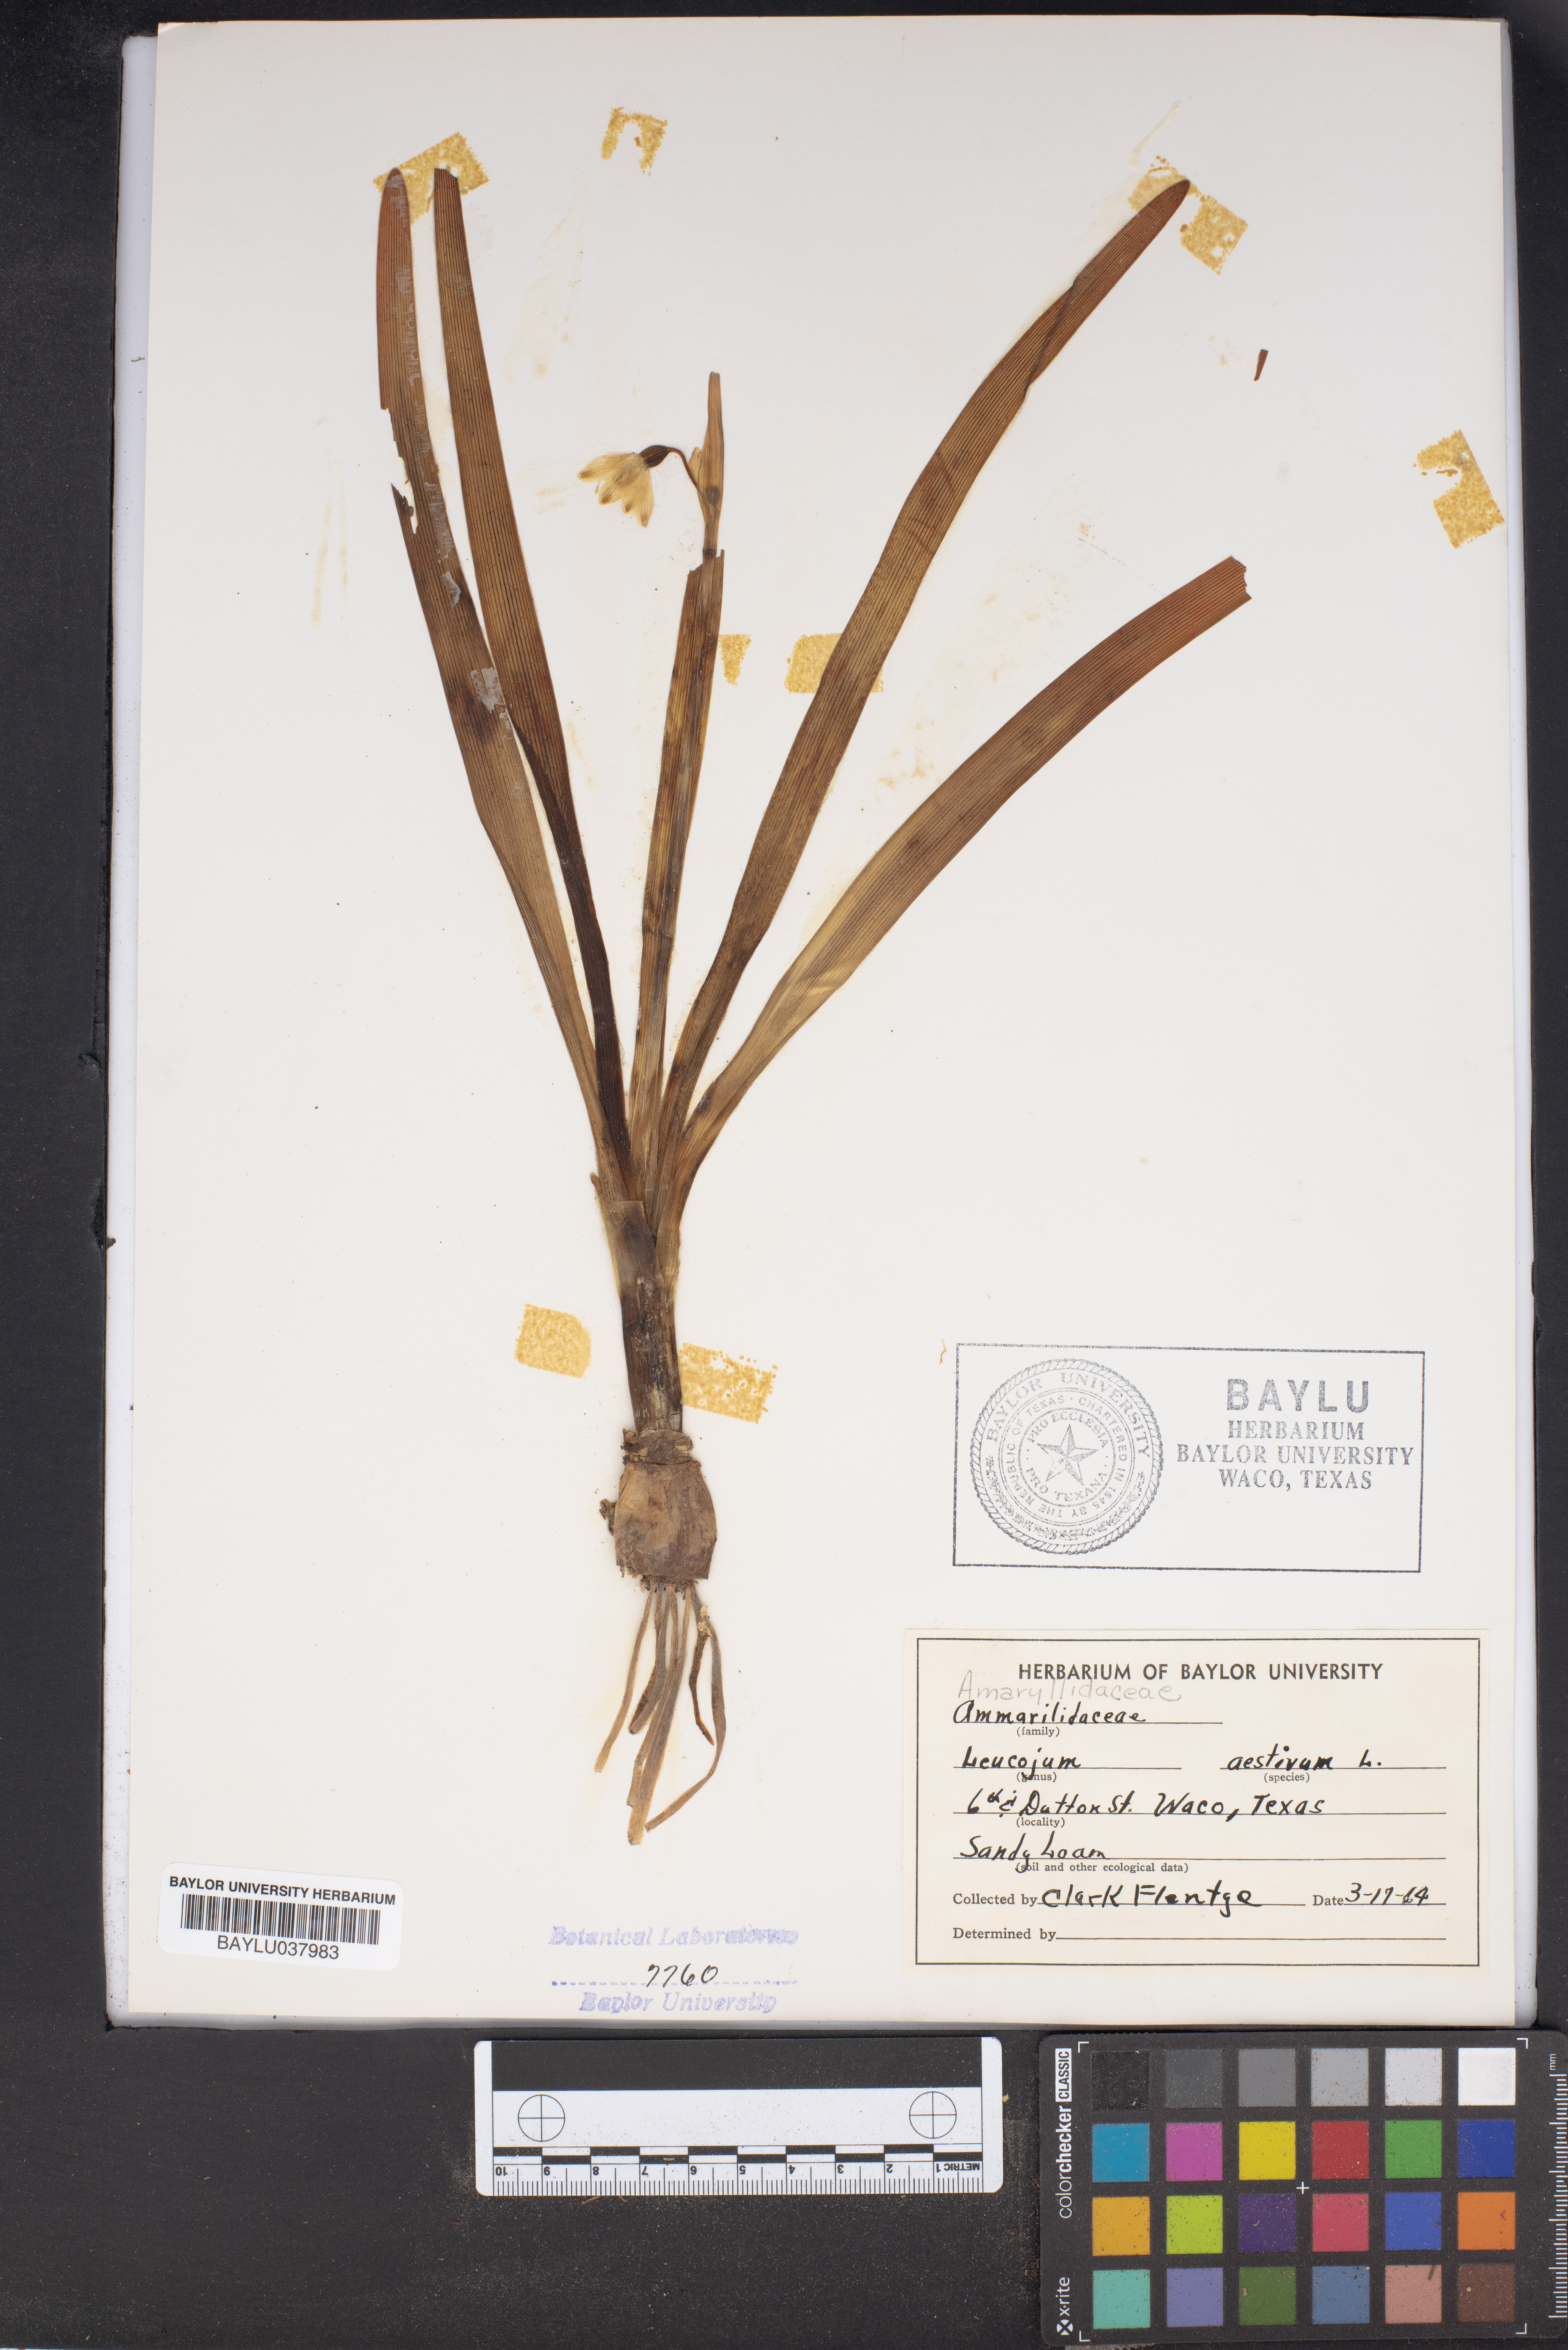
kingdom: Plantae
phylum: Tracheophyta
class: Liliopsida
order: Asparagales
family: Amaryllidaceae
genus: Leucojum
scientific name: Leucojum aestivum
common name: Summer snowflake
